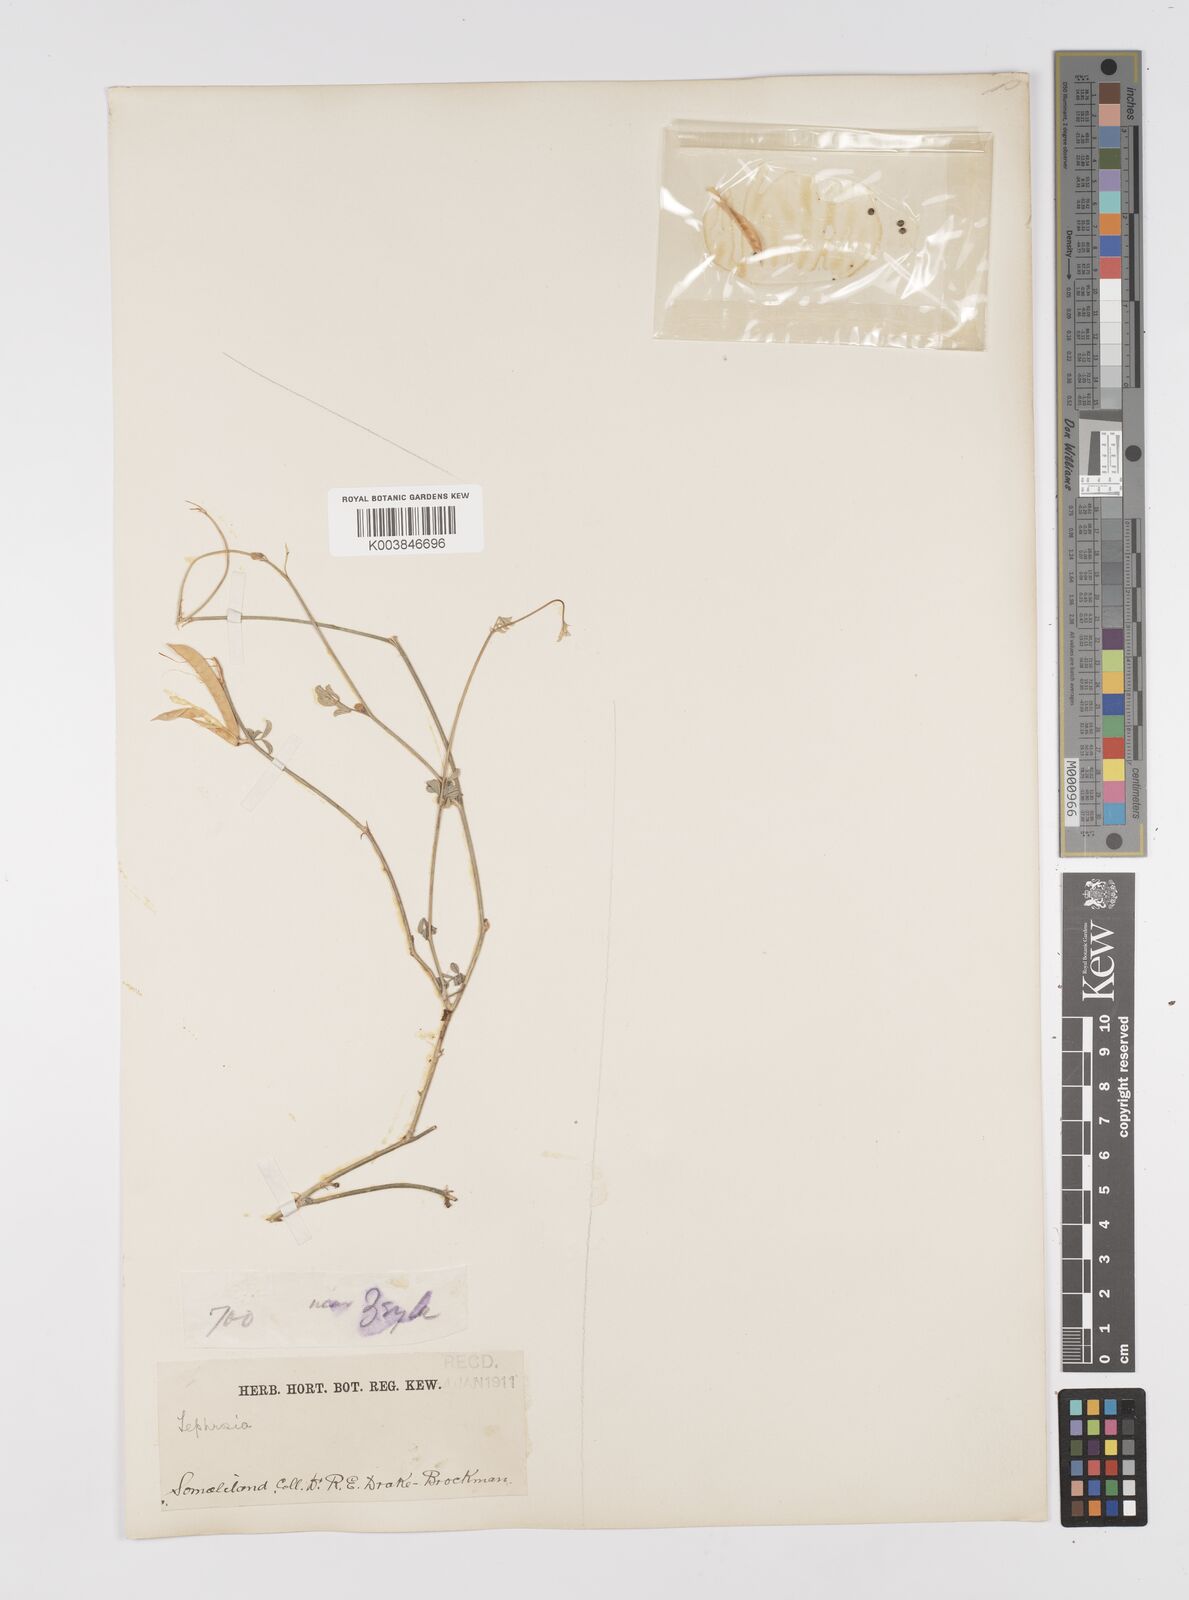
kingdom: Plantae
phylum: Tracheophyta
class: Magnoliopsida
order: Fabales
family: Fabaceae
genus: Tephrosia
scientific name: Tephrosia
